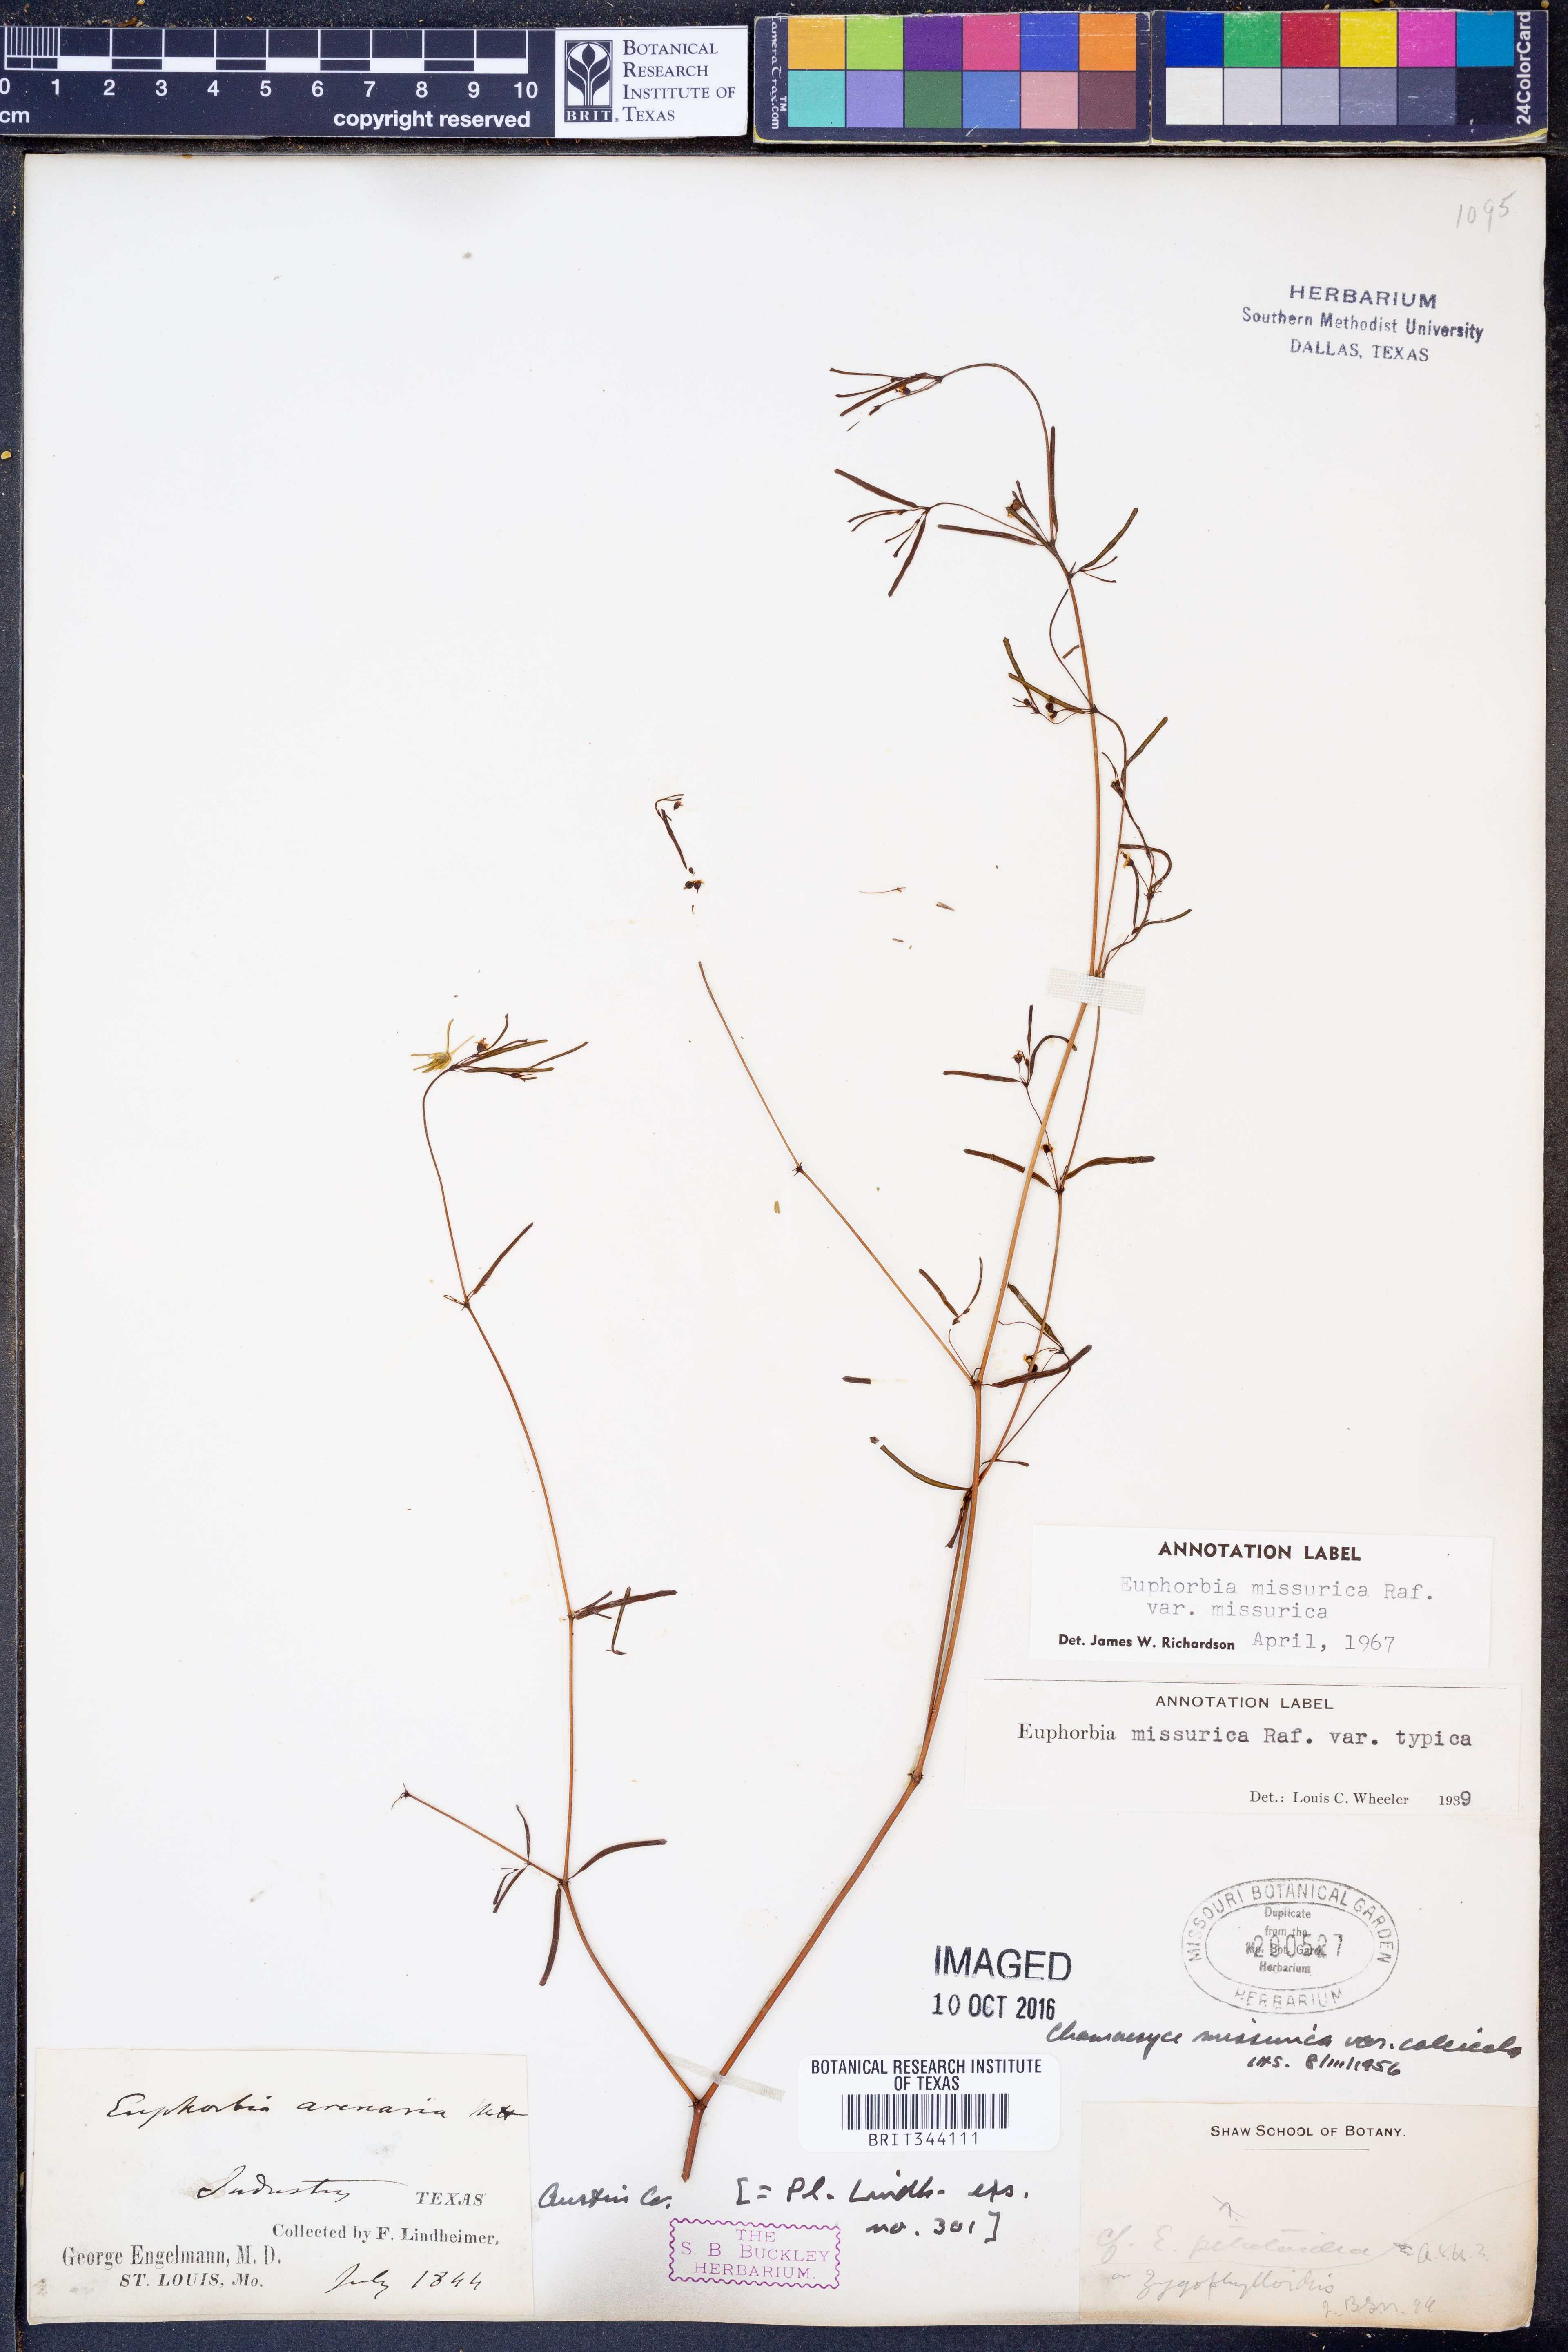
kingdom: Plantae
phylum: Tracheophyta
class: Magnoliopsida
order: Malpighiales
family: Euphorbiaceae
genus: Euphorbia
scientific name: Euphorbia missurica
